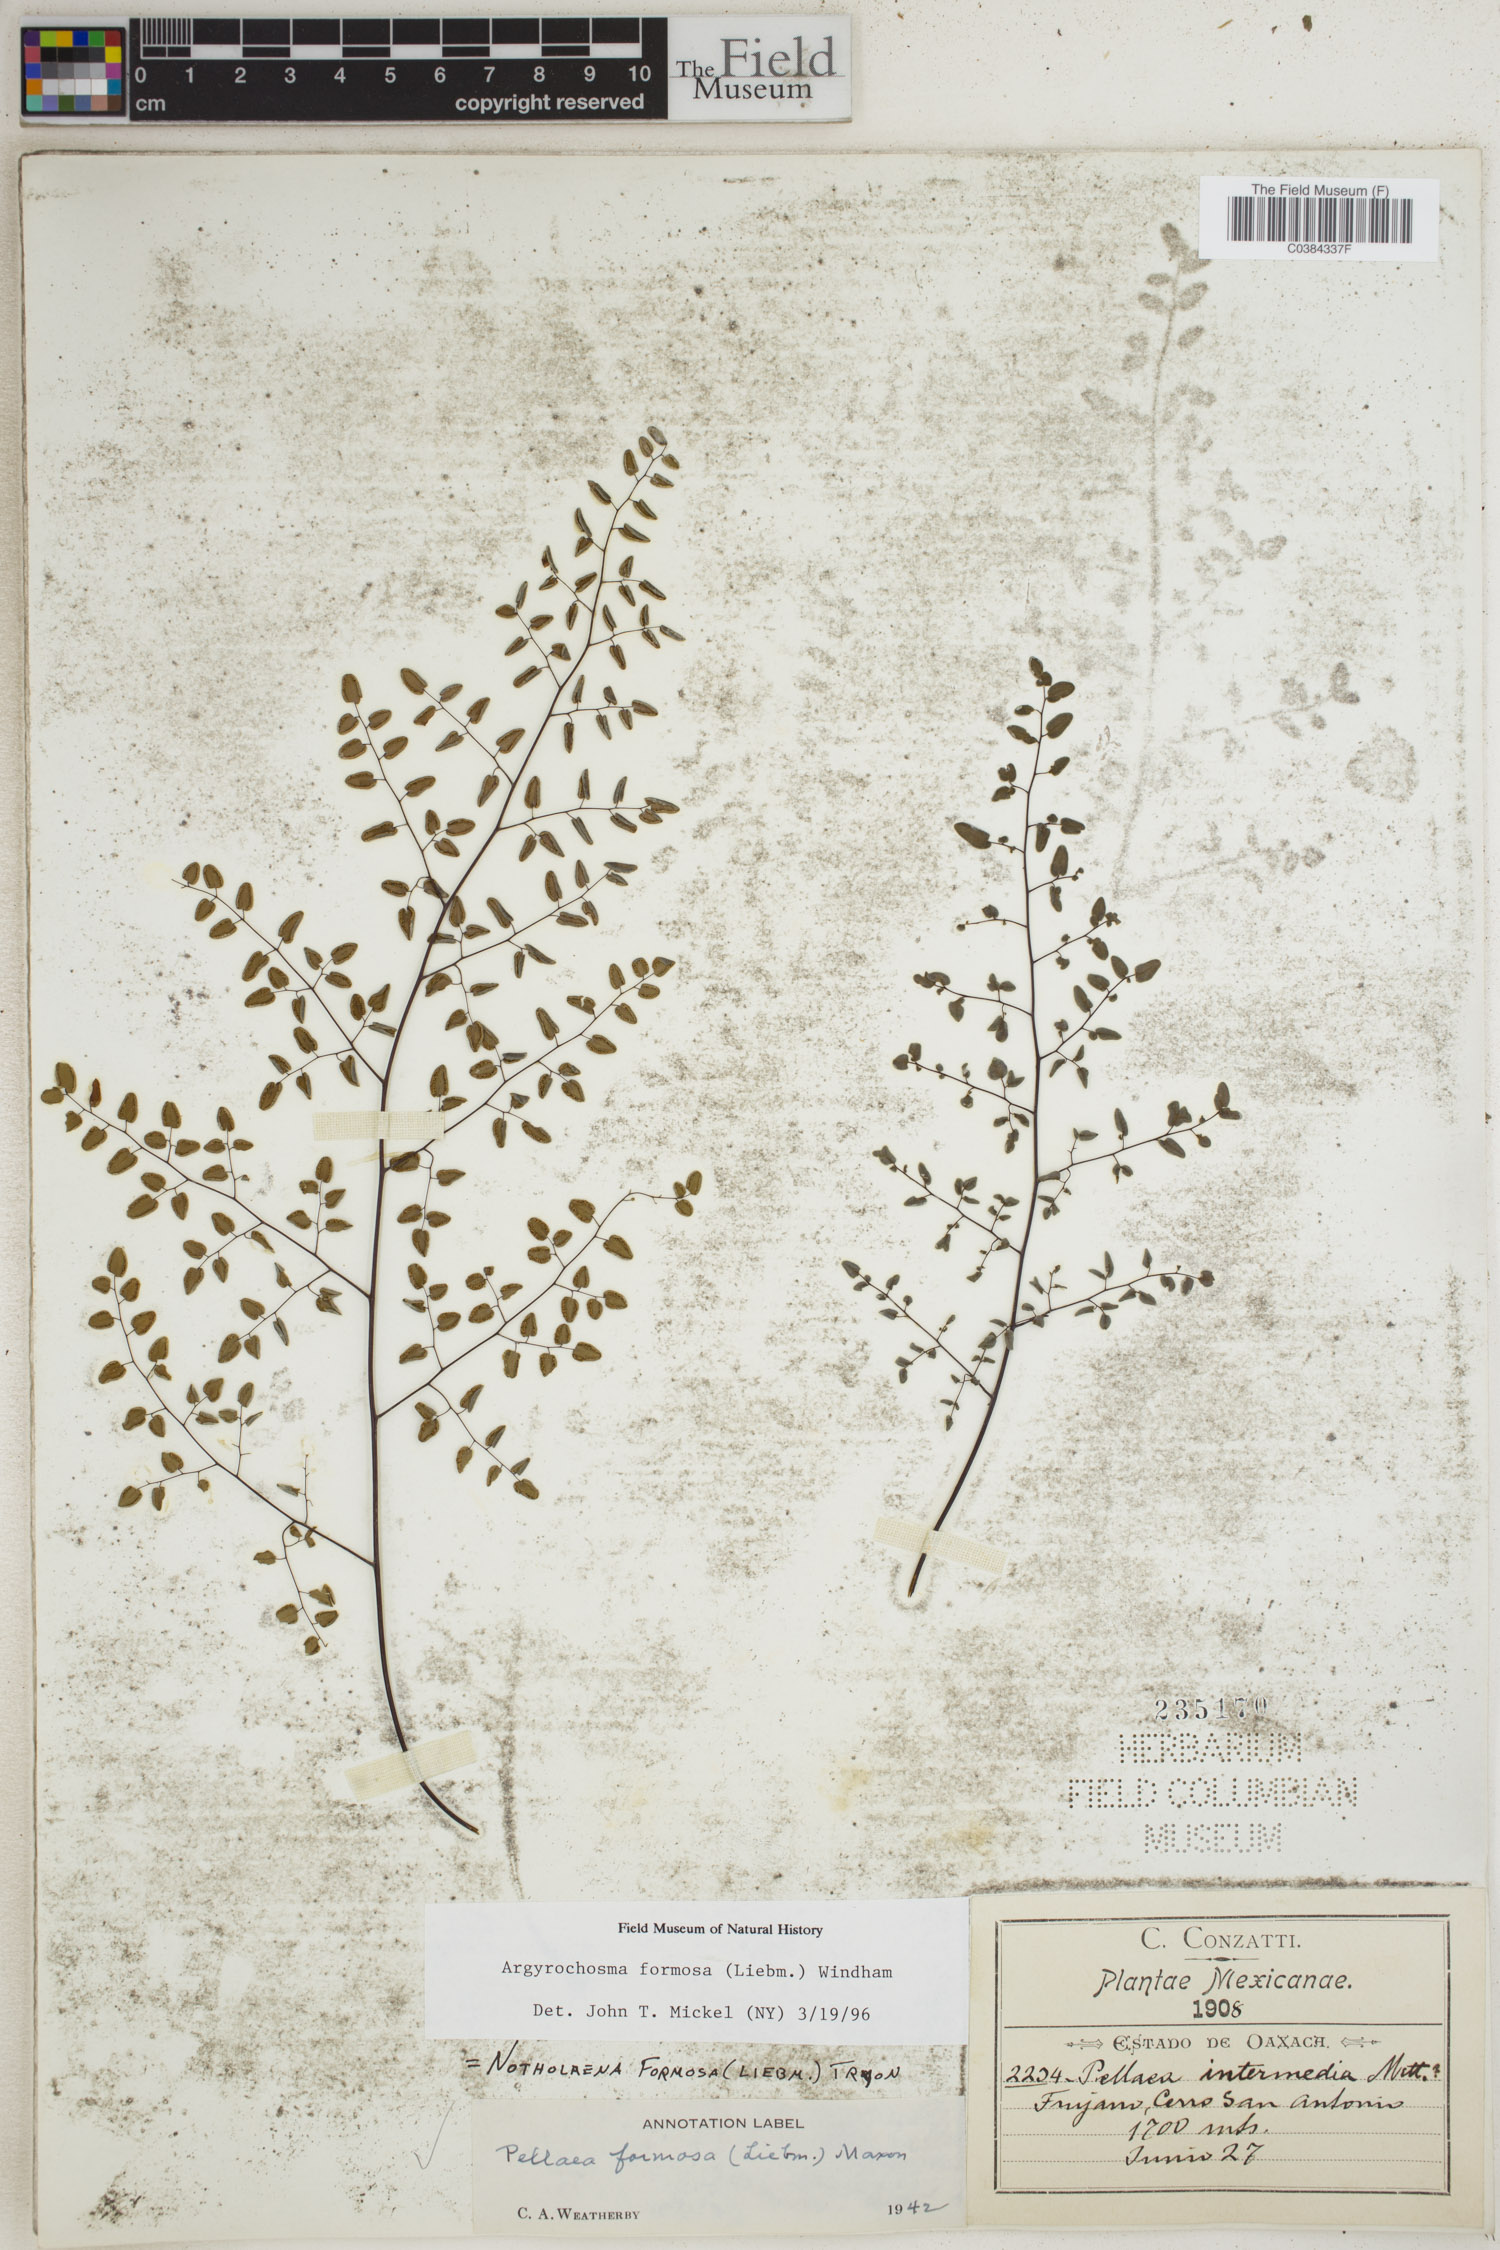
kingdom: Plantae
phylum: Tracheophyta
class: Polypodiopsida
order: Polypodiales
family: Pteridaceae
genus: Argyrochosma
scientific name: Argyrochosma formosa
